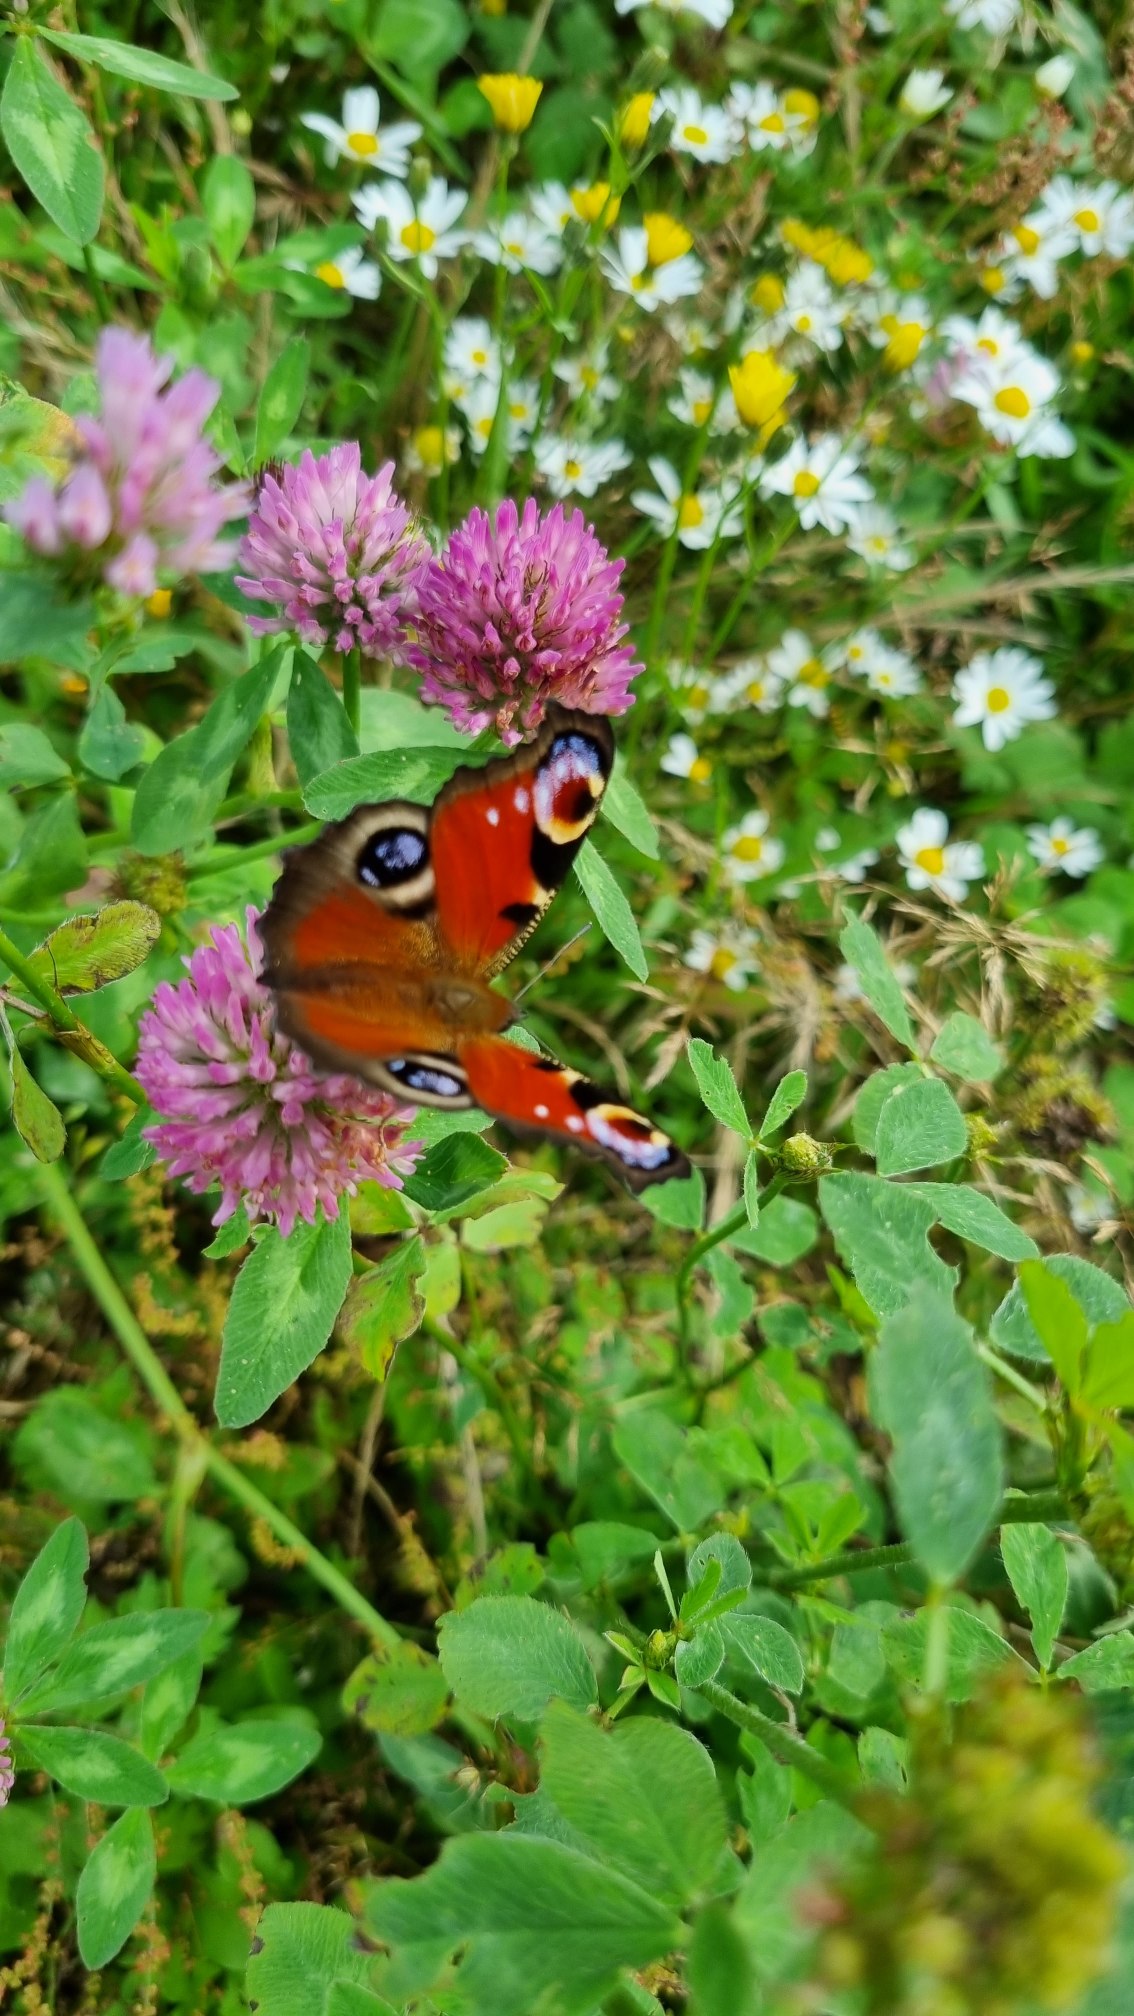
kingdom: Animalia
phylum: Arthropoda
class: Insecta
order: Lepidoptera
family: Nymphalidae
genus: Aglais
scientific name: Aglais io
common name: Dagpåfugleøje
